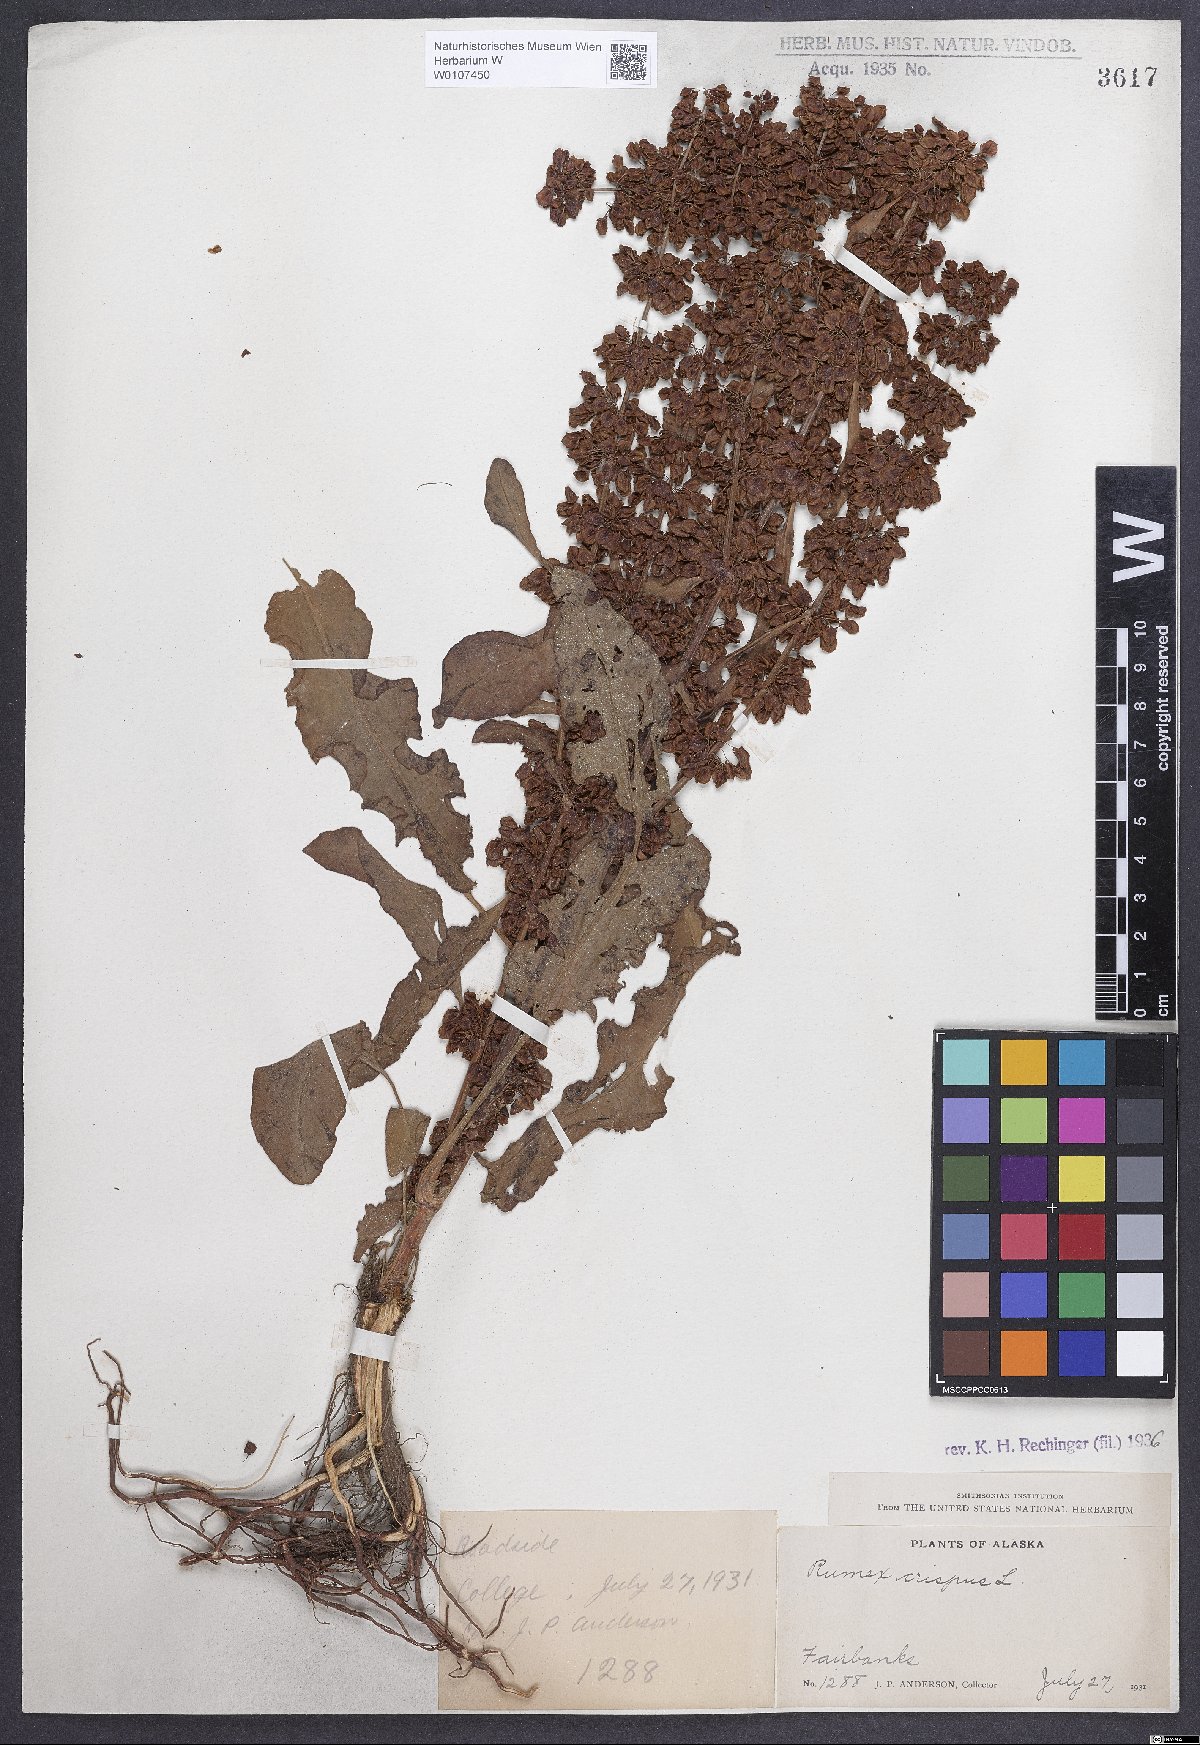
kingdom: Plantae
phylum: Tracheophyta
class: Magnoliopsida
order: Caryophyllales
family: Polygonaceae
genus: Rumex
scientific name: Rumex crispus
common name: Curled dock
